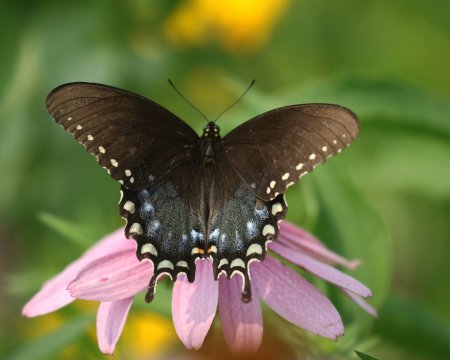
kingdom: Animalia
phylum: Arthropoda
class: Insecta
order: Lepidoptera
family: Papilionidae
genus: Pterourus
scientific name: Pterourus troilus
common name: Spicebush Swallowtail
